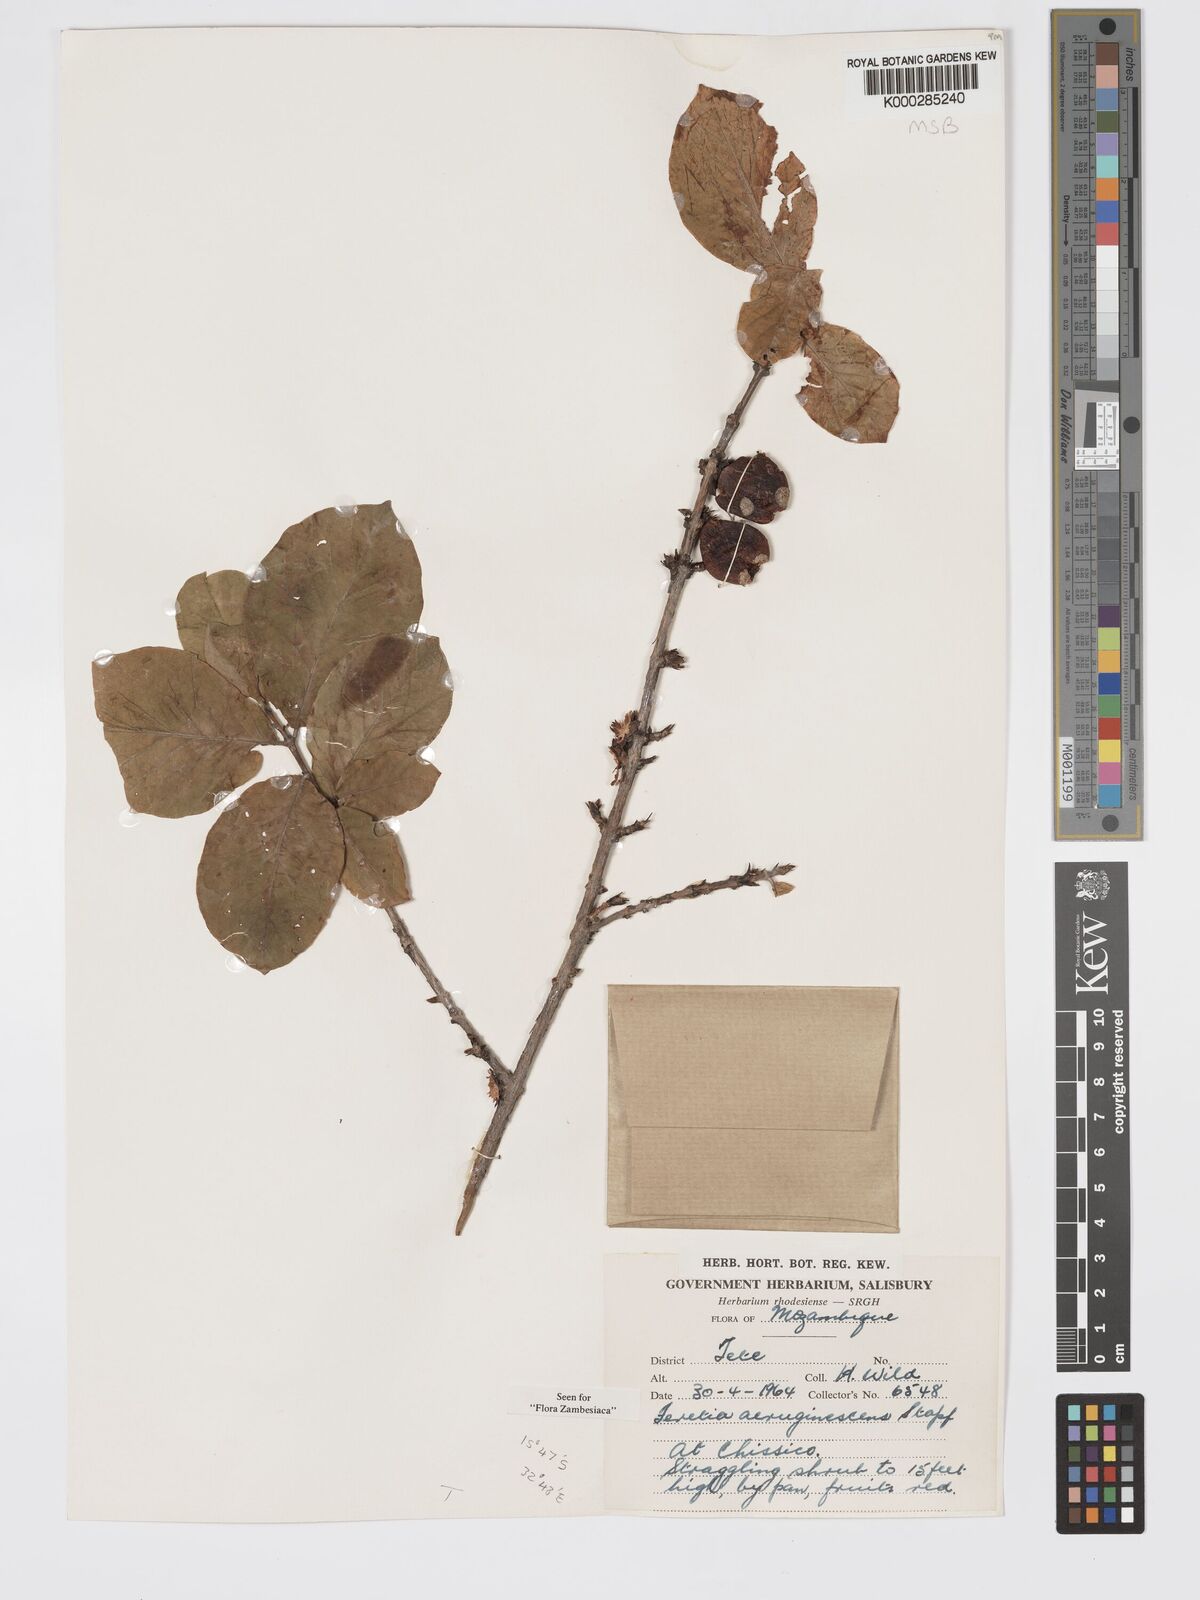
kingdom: Plantae
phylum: Tracheophyta
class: Magnoliopsida
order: Gentianales
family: Rubiaceae
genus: Feretia
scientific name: Feretia aeruginescens
